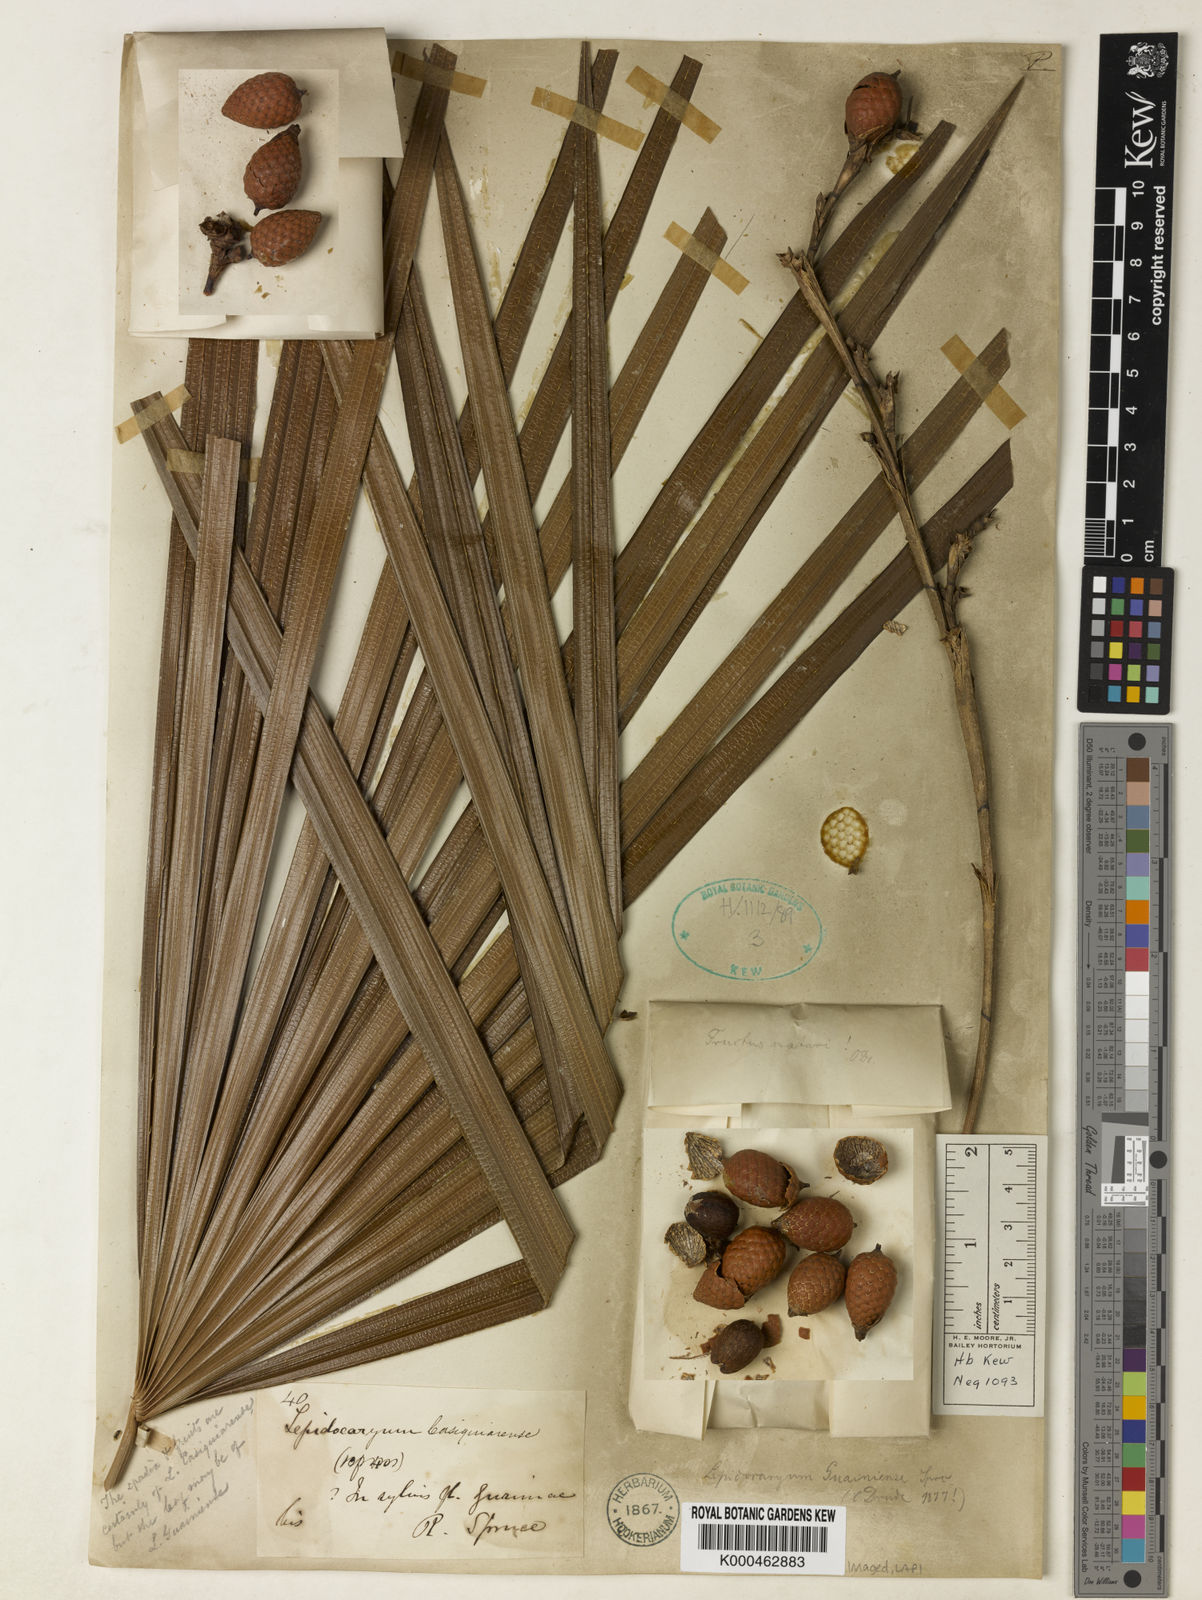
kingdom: Plantae
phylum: Tracheophyta
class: Liliopsida
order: Arecales
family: Arecaceae
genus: Lepidocaryum
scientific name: Lepidocaryum tenue
